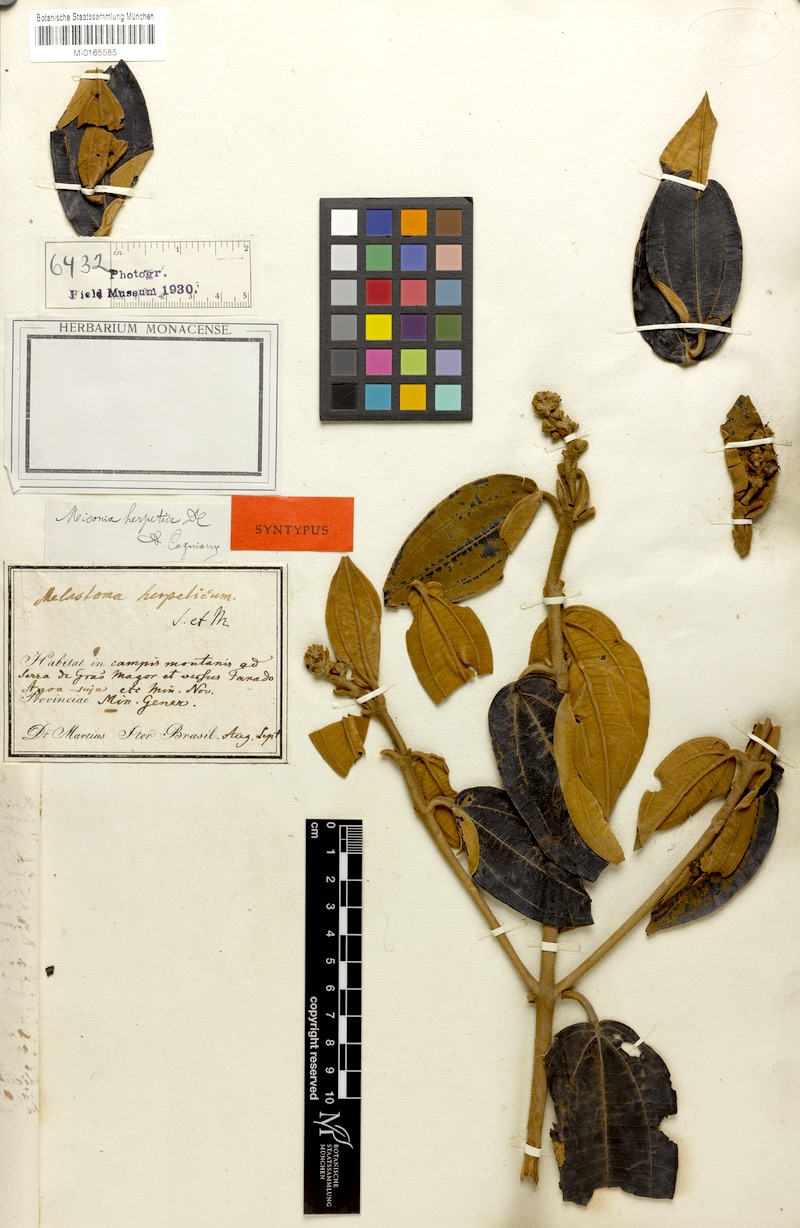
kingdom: Plantae
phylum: Tracheophyta
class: Magnoliopsida
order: Myrtales
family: Melastomataceae
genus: Miconia
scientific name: Miconia herpetica
